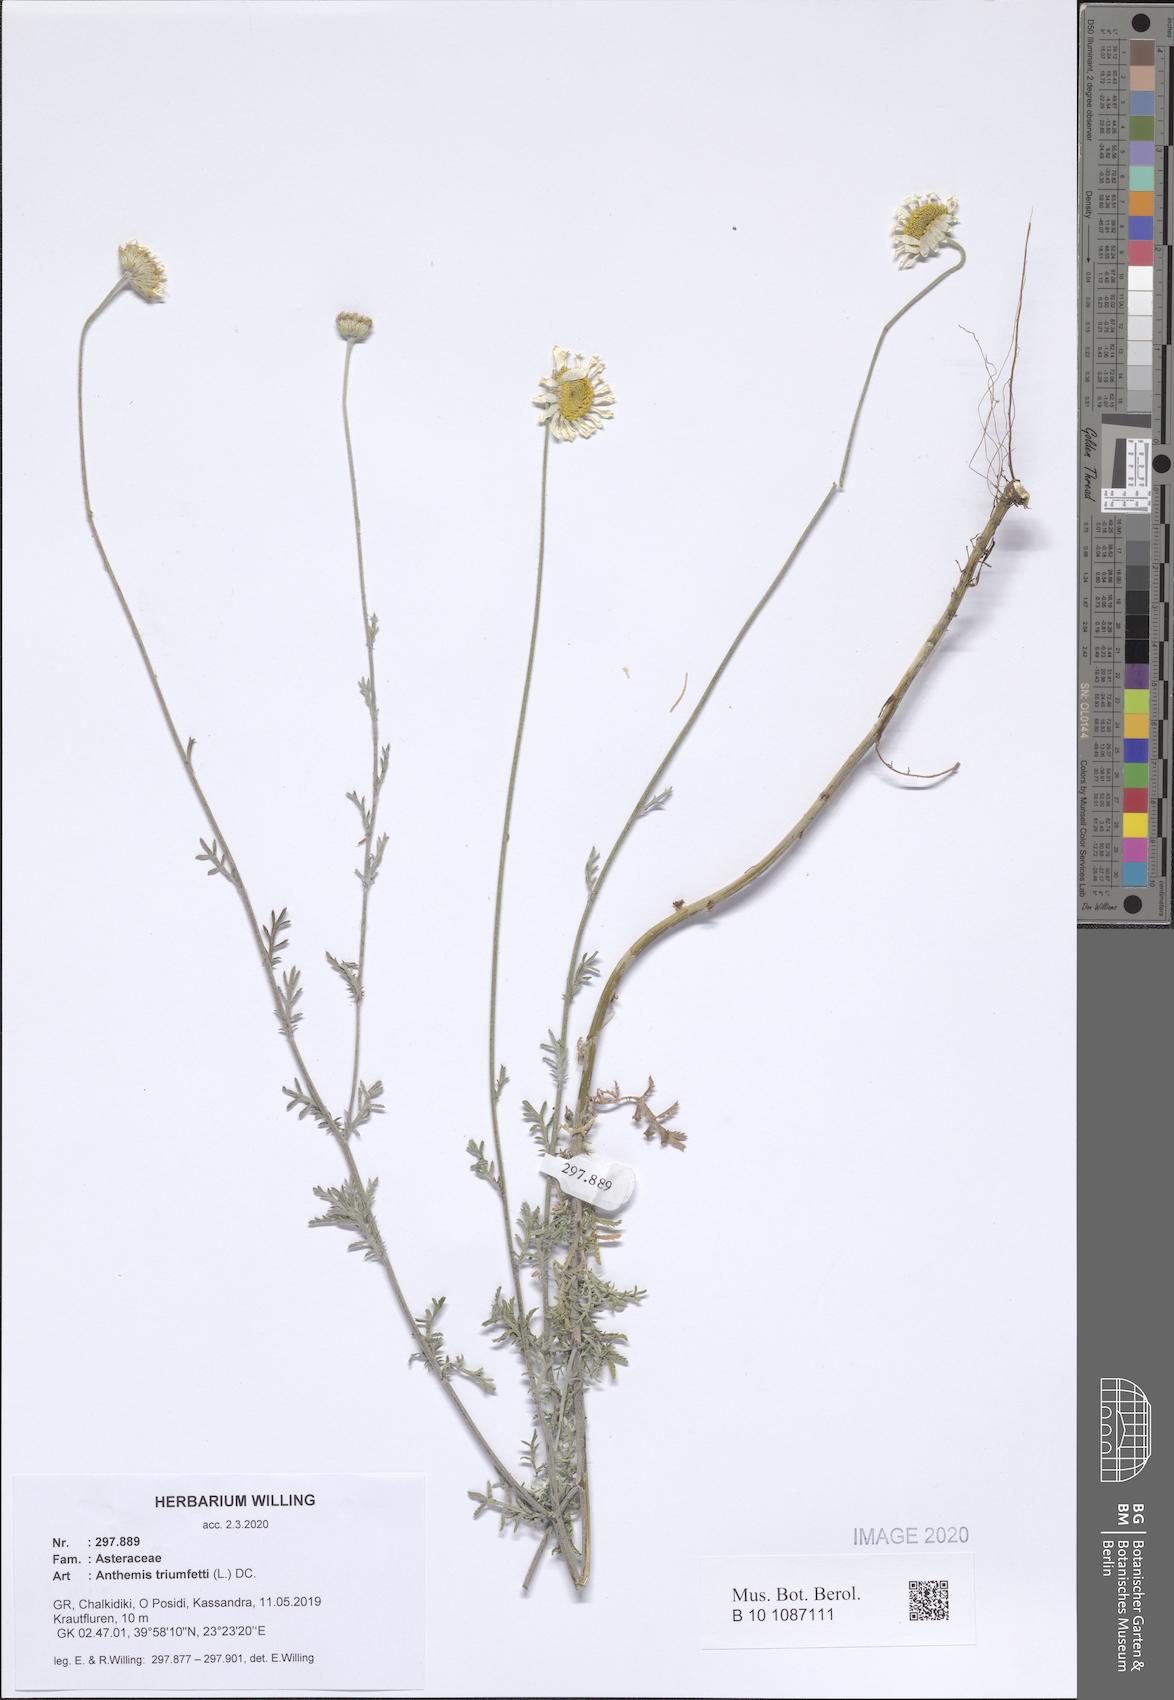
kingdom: Plantae
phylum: Tracheophyta
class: Magnoliopsida
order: Asterales
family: Asteraceae
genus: Cota
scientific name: Cota triumfetti
